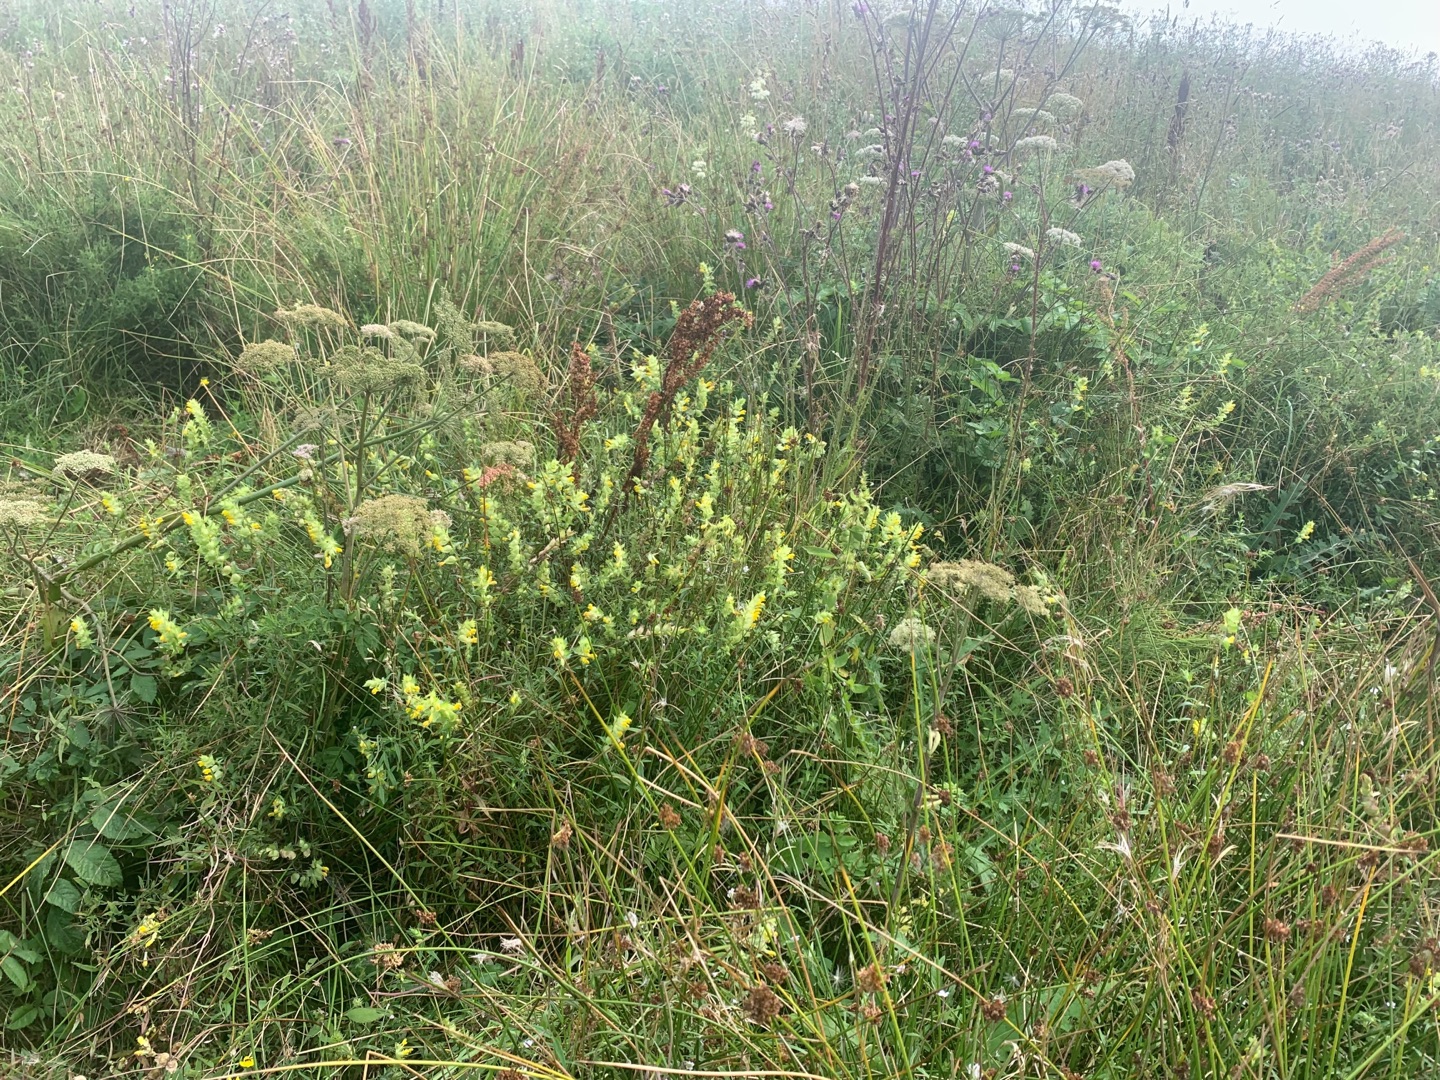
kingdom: Plantae
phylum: Tracheophyta
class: Magnoliopsida
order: Lamiales
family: Orobanchaceae
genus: Rhinanthus
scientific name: Rhinanthus
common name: Stor skjaller
